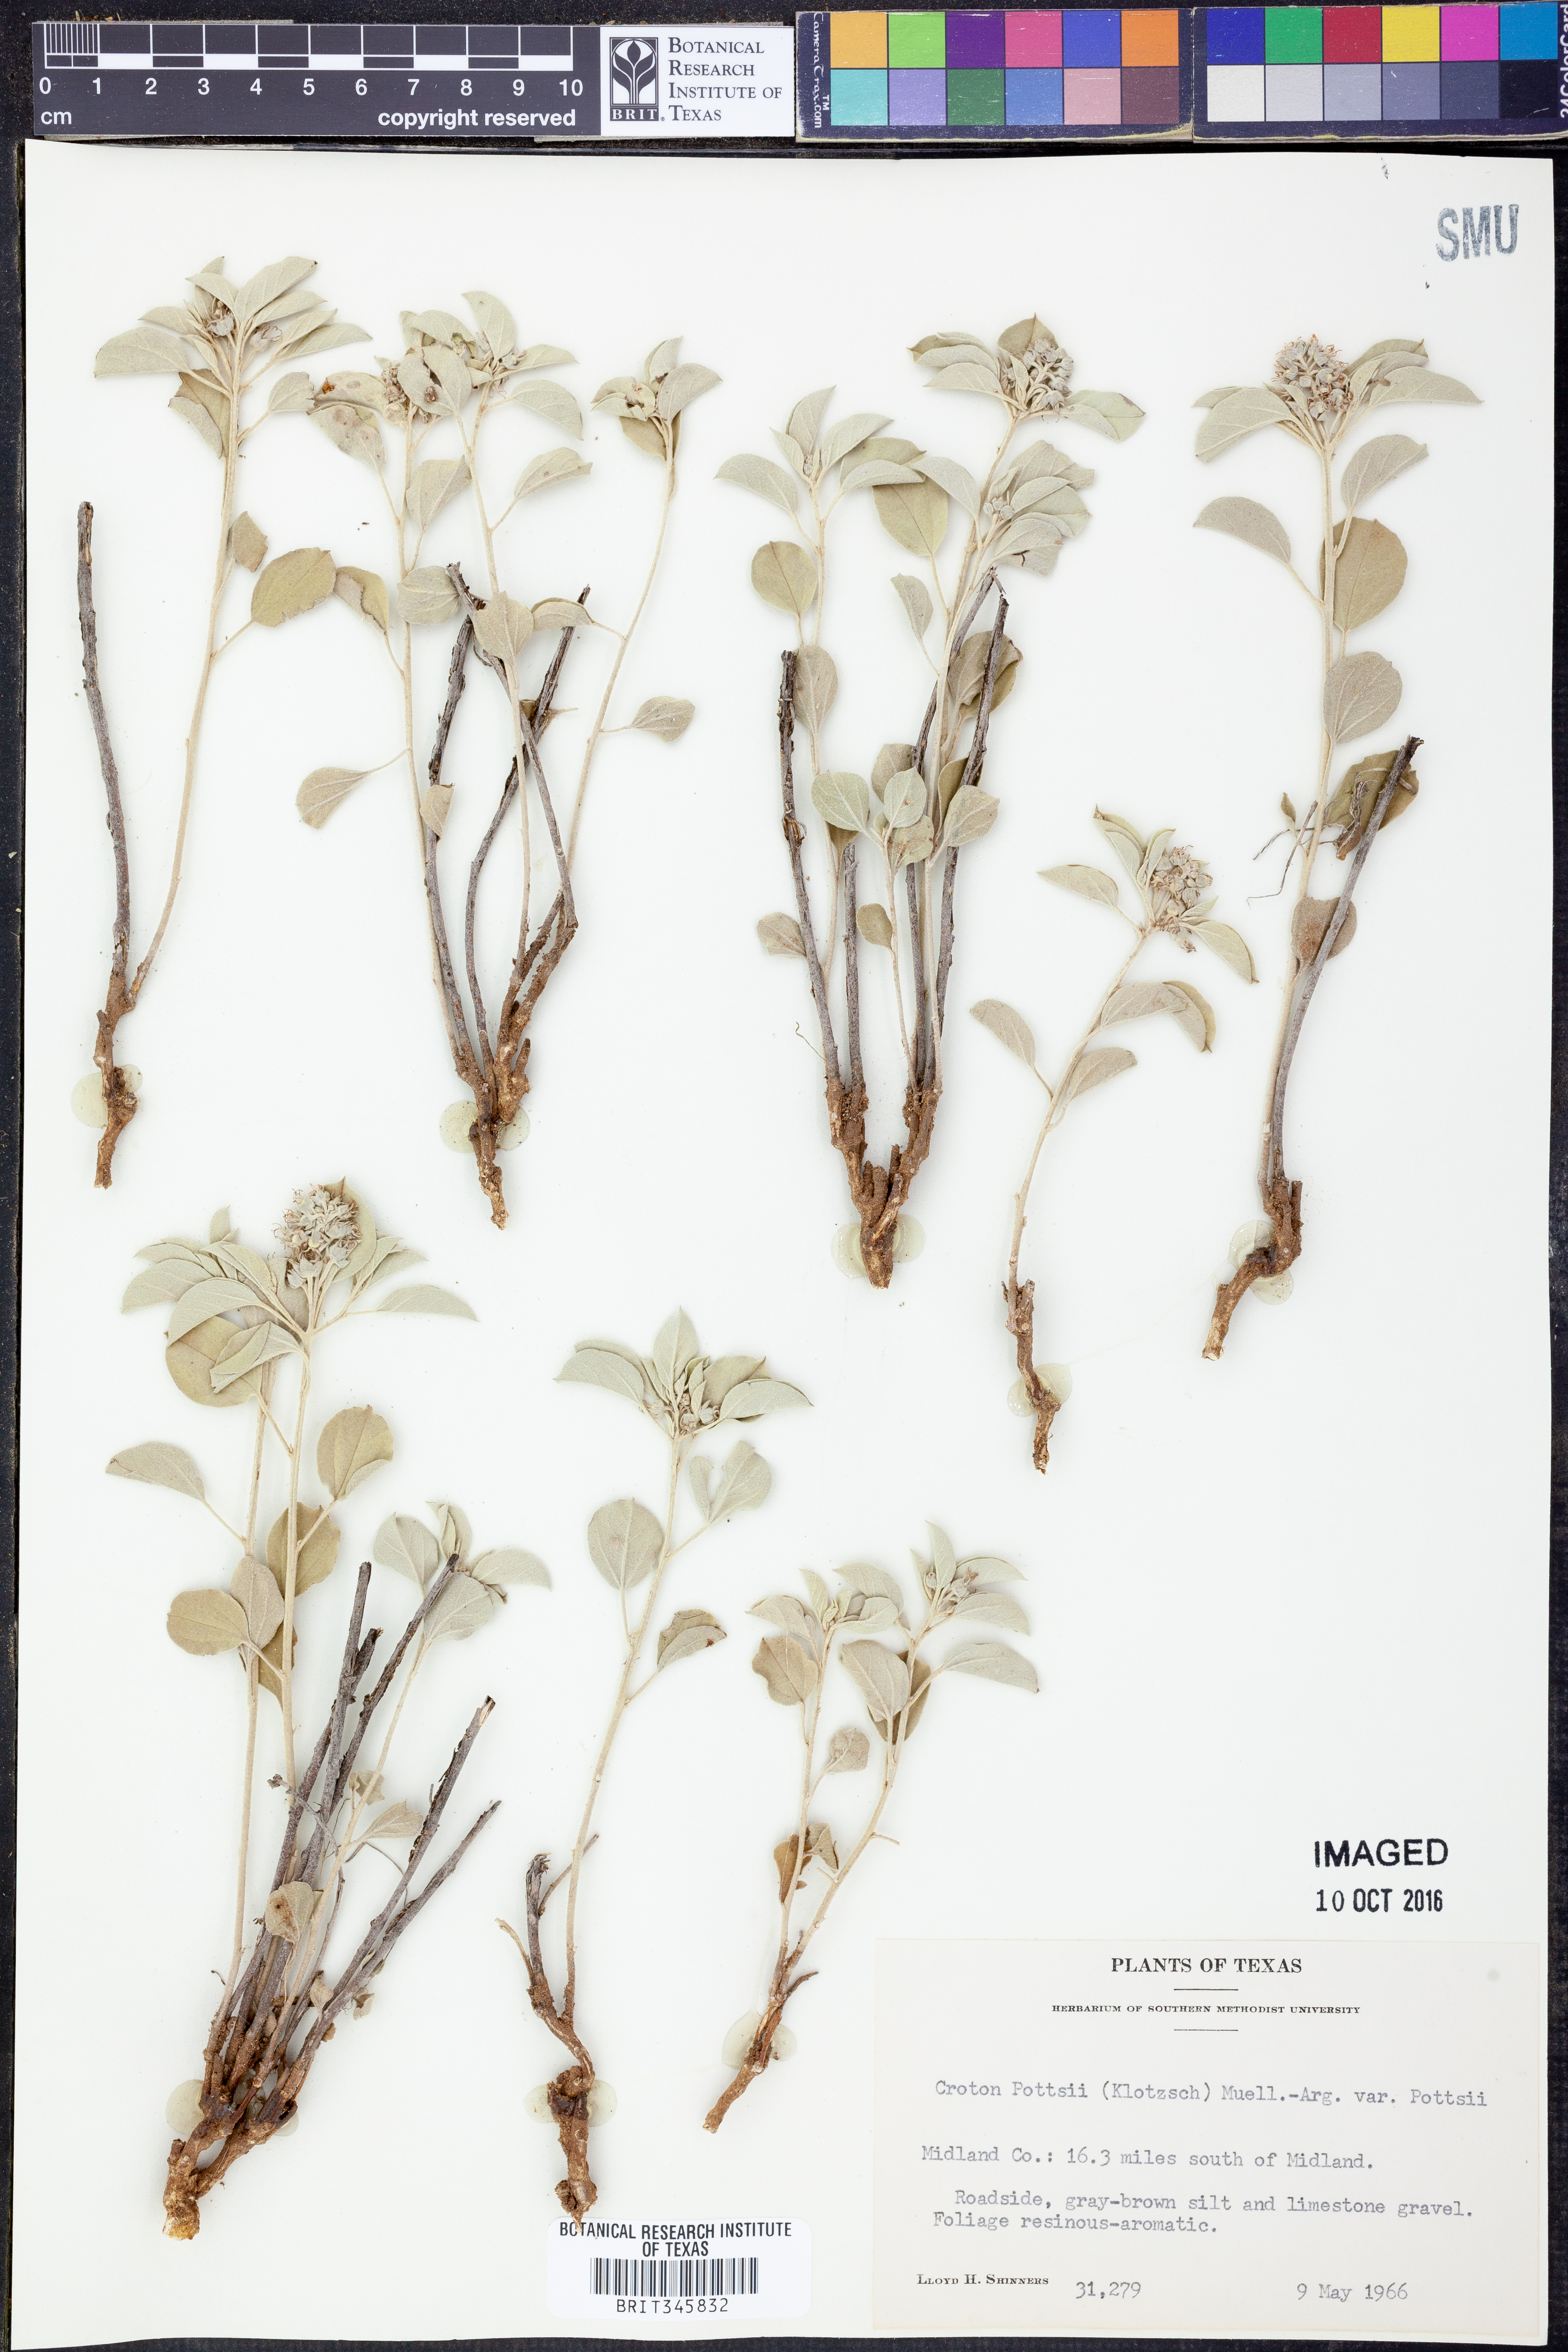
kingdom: Plantae
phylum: Tracheophyta
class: Magnoliopsida
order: Malpighiales
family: Euphorbiaceae
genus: Croton
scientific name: Croton pottsii
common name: Leatherweed
